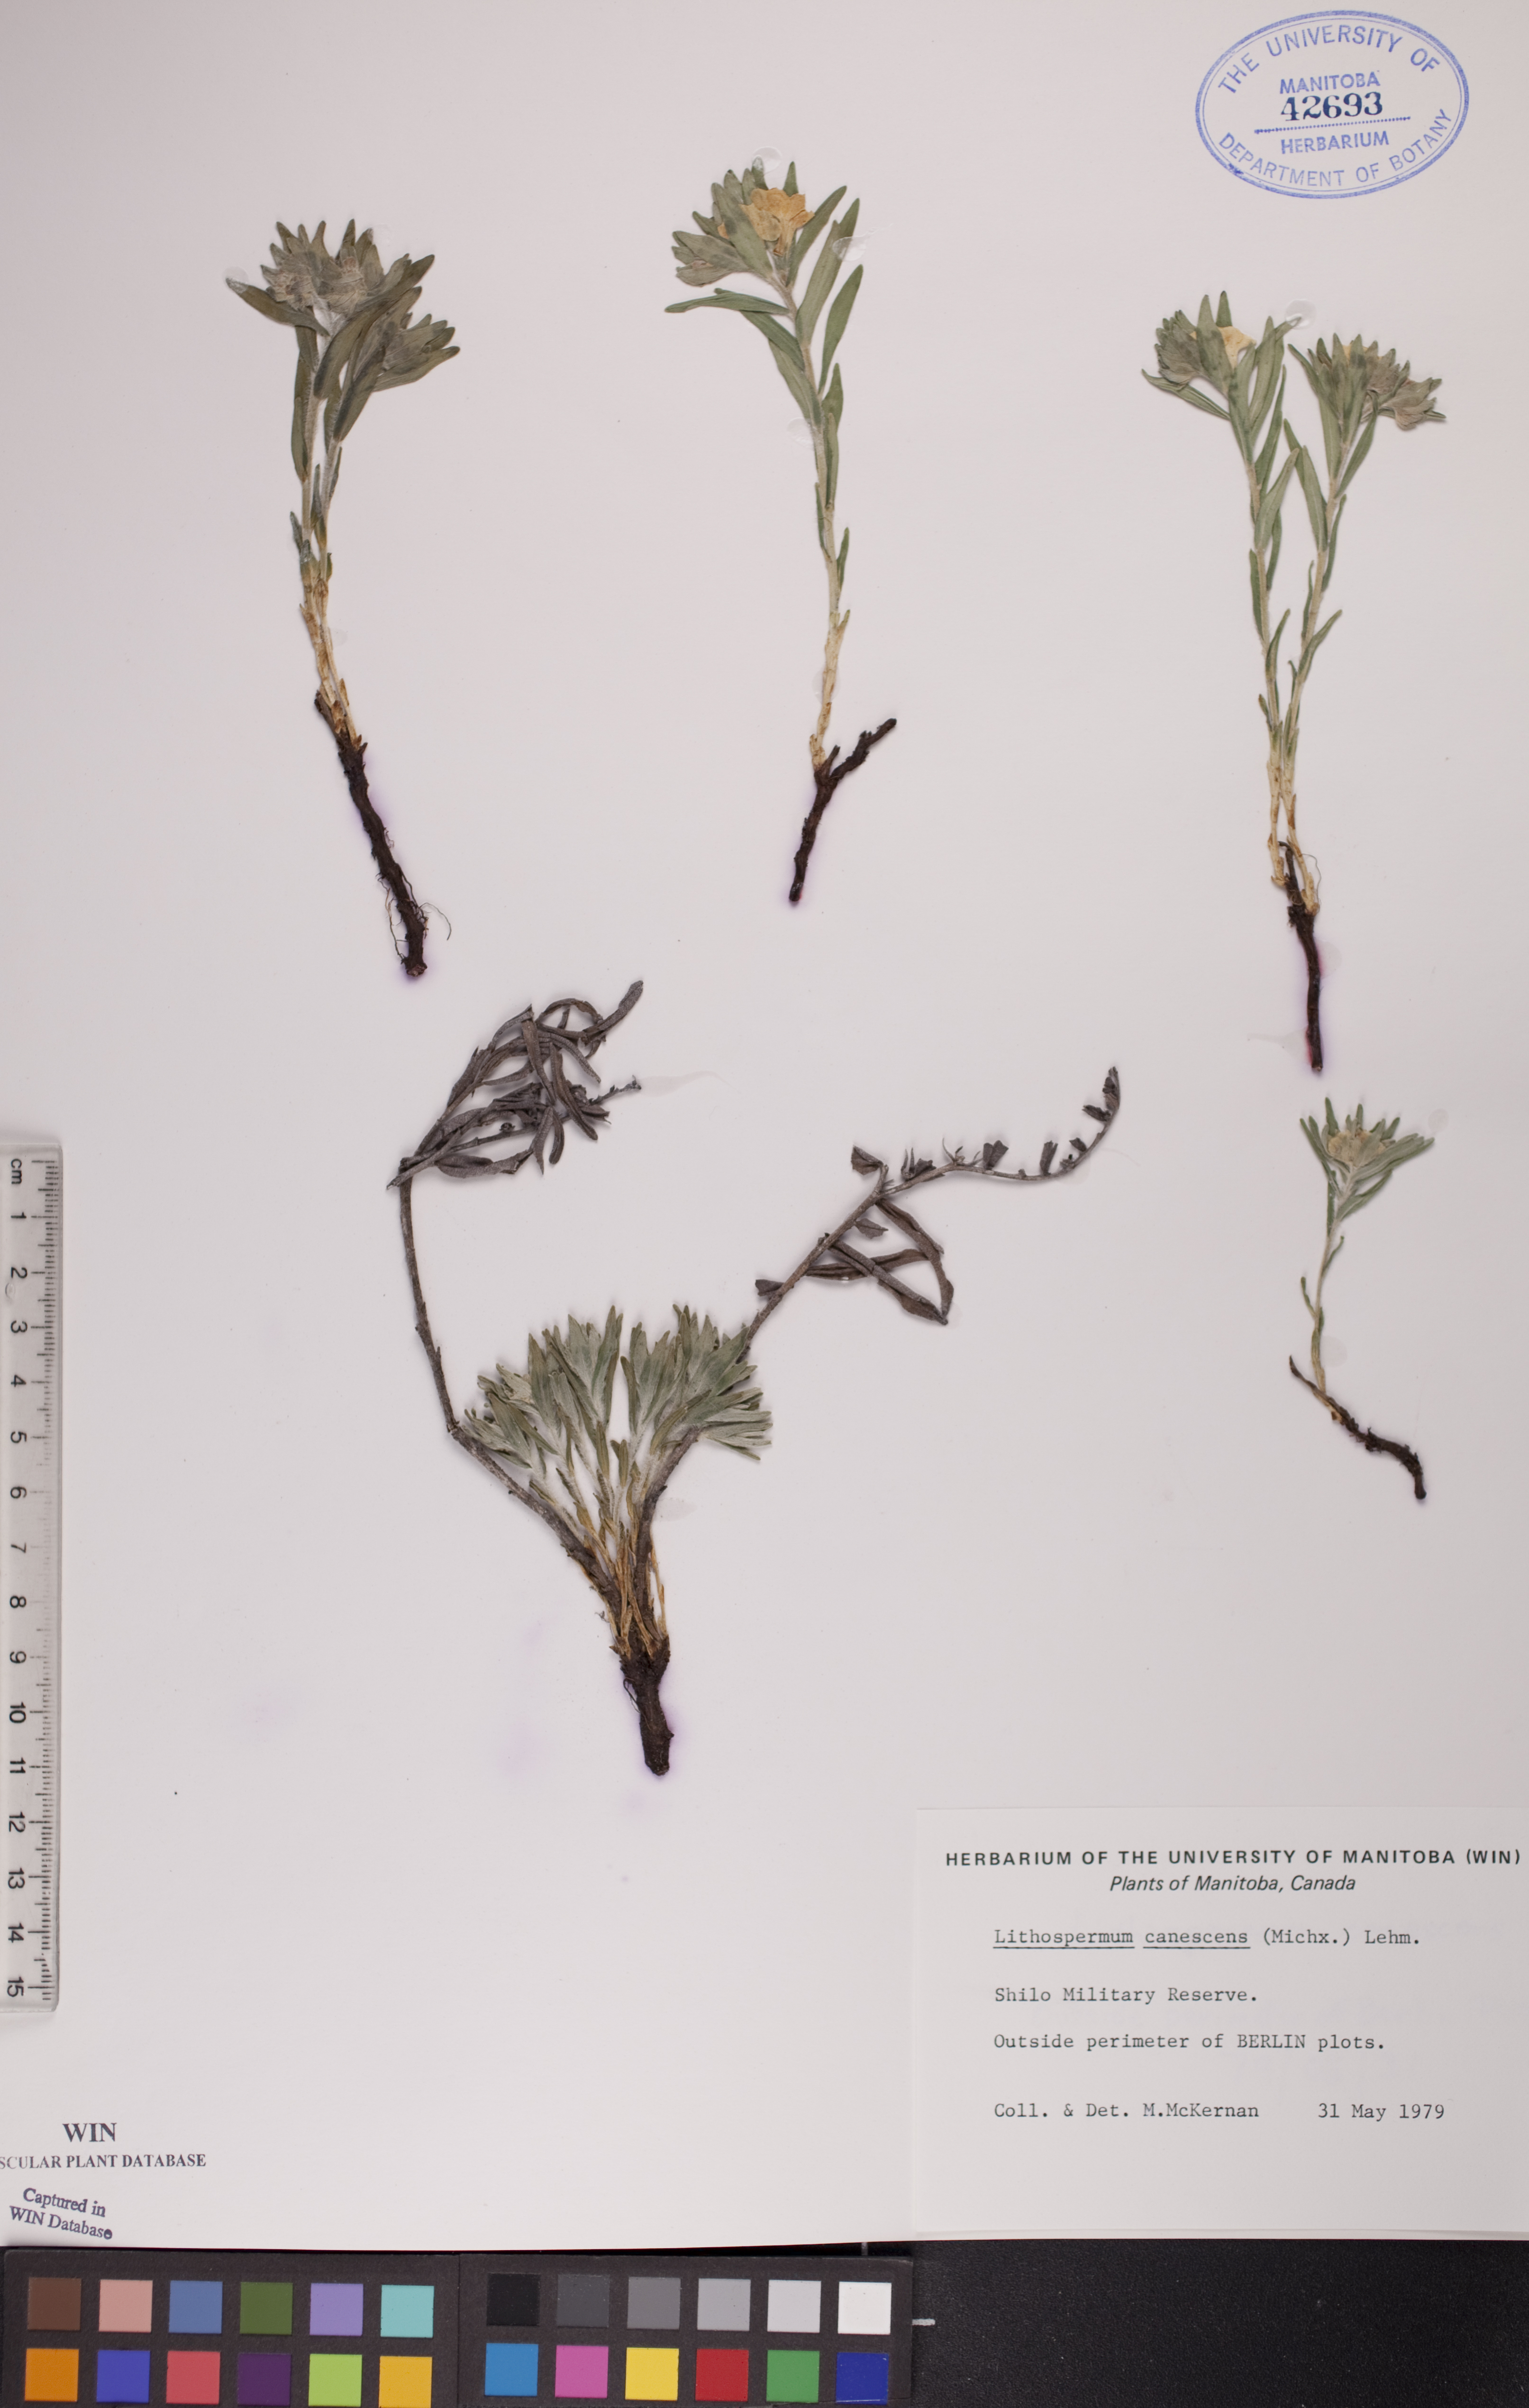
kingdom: Plantae
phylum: Tracheophyta
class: Magnoliopsida
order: Boraginales
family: Boraginaceae
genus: Lithospermum
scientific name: Lithospermum canescens
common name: Hoary puccoon
